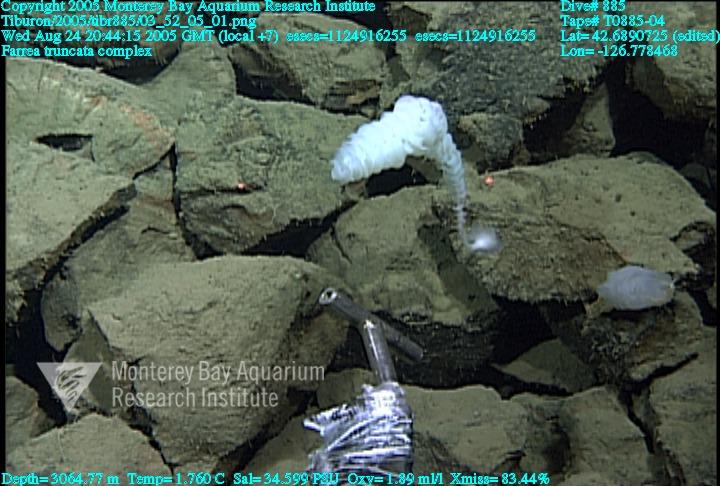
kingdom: Animalia
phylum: Porifera
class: Hexactinellida
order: Sceptrulophora
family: Farreidae
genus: Farrea
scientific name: Farrea truncata
